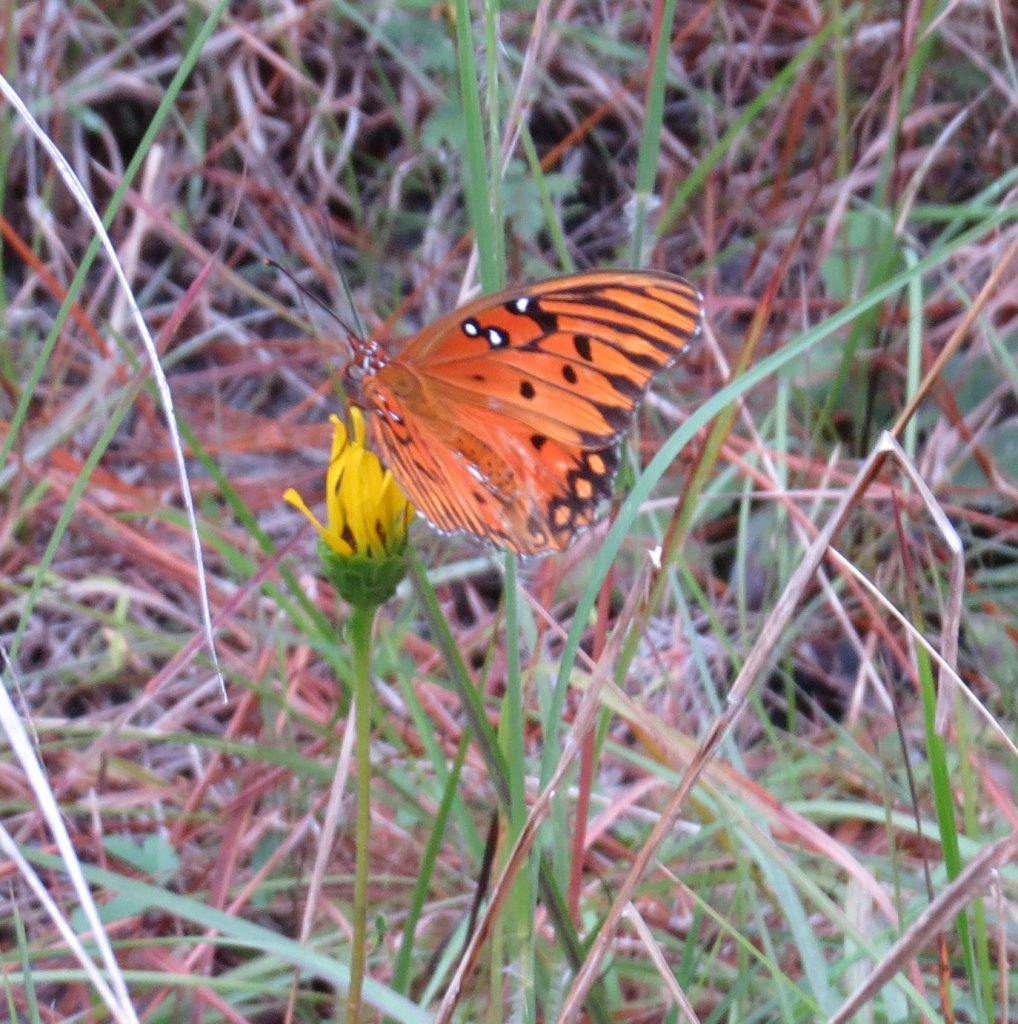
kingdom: Animalia
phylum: Arthropoda
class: Insecta
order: Lepidoptera
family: Nymphalidae
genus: Dione
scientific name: Dione vanillae
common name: Gulf Fritillary
